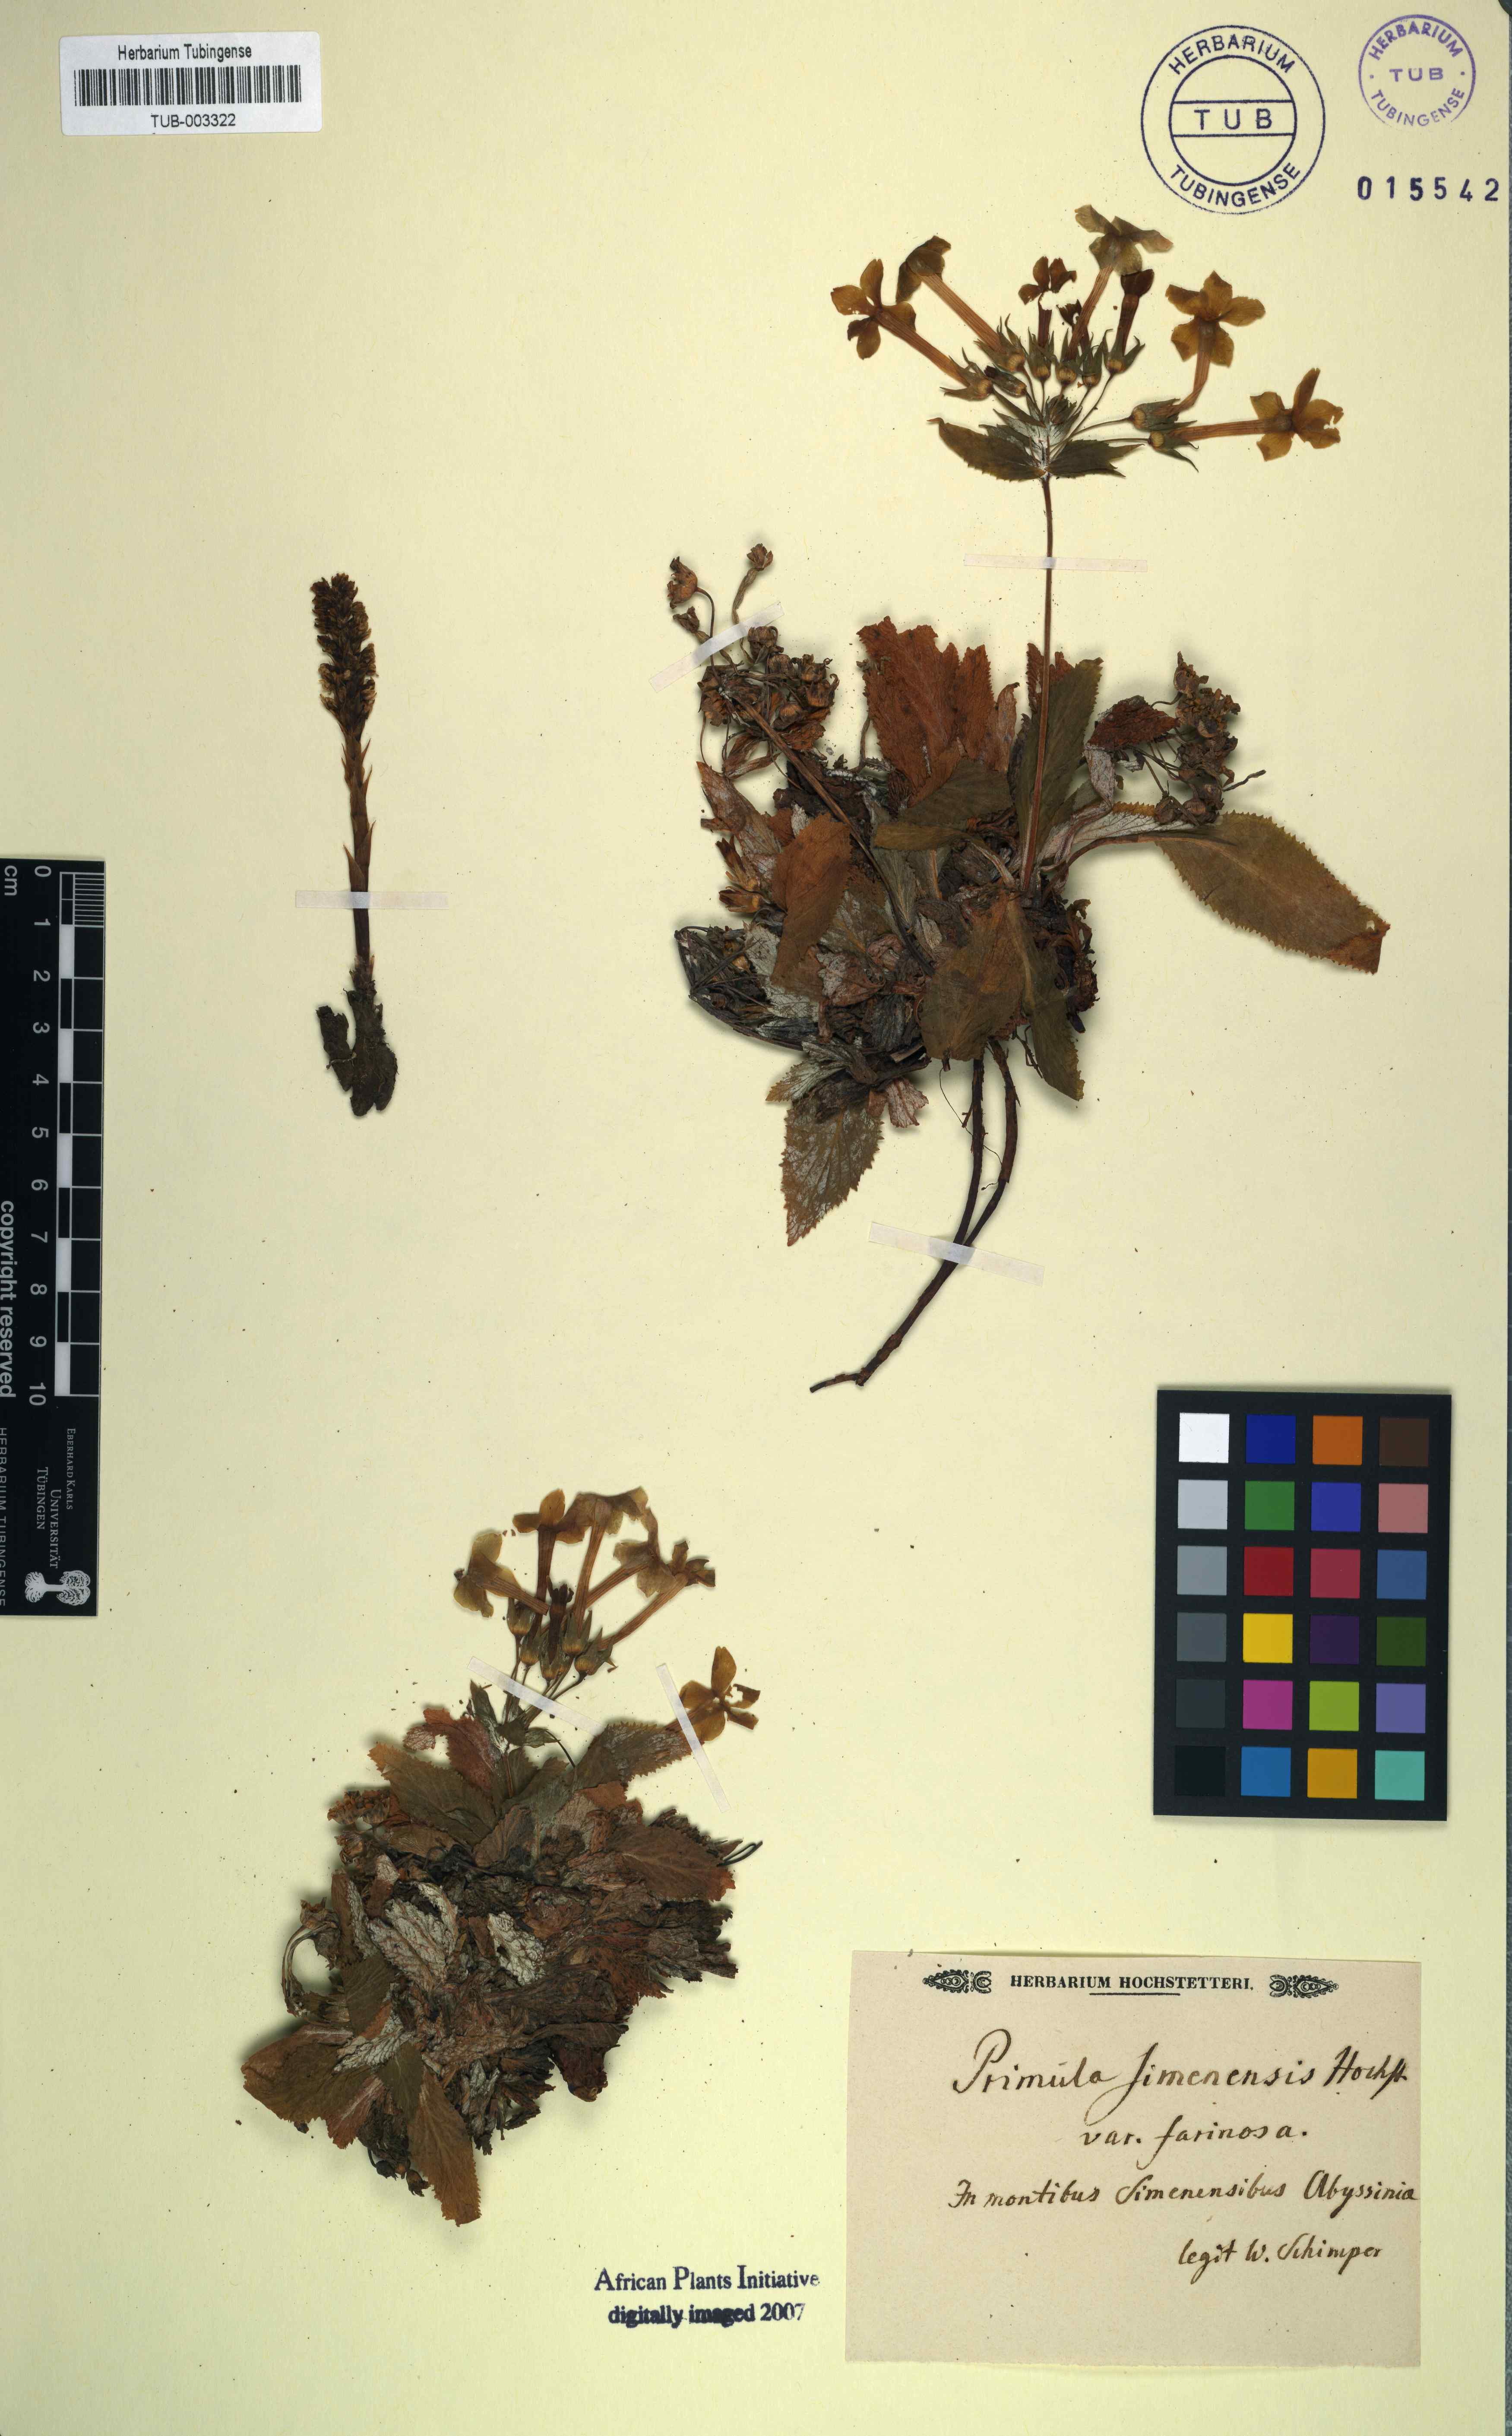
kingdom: Plantae
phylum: Tracheophyta
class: Magnoliopsida
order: Ericales
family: Primulaceae
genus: Evotrochis
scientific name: Evotrochis verticillata
